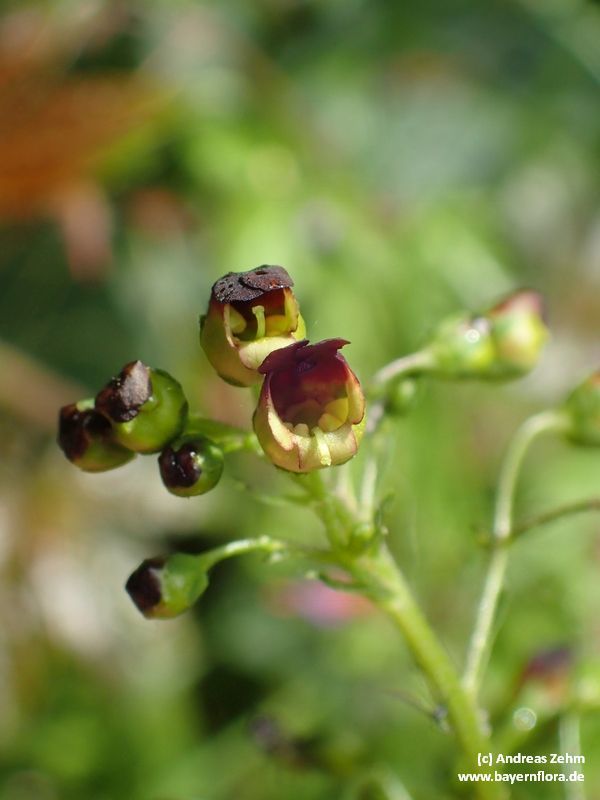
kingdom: Plantae
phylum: Tracheophyta
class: Magnoliopsida
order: Lamiales
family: Scrophulariaceae
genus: Scrophularia
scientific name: Scrophularia nodosa
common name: Common figwort
